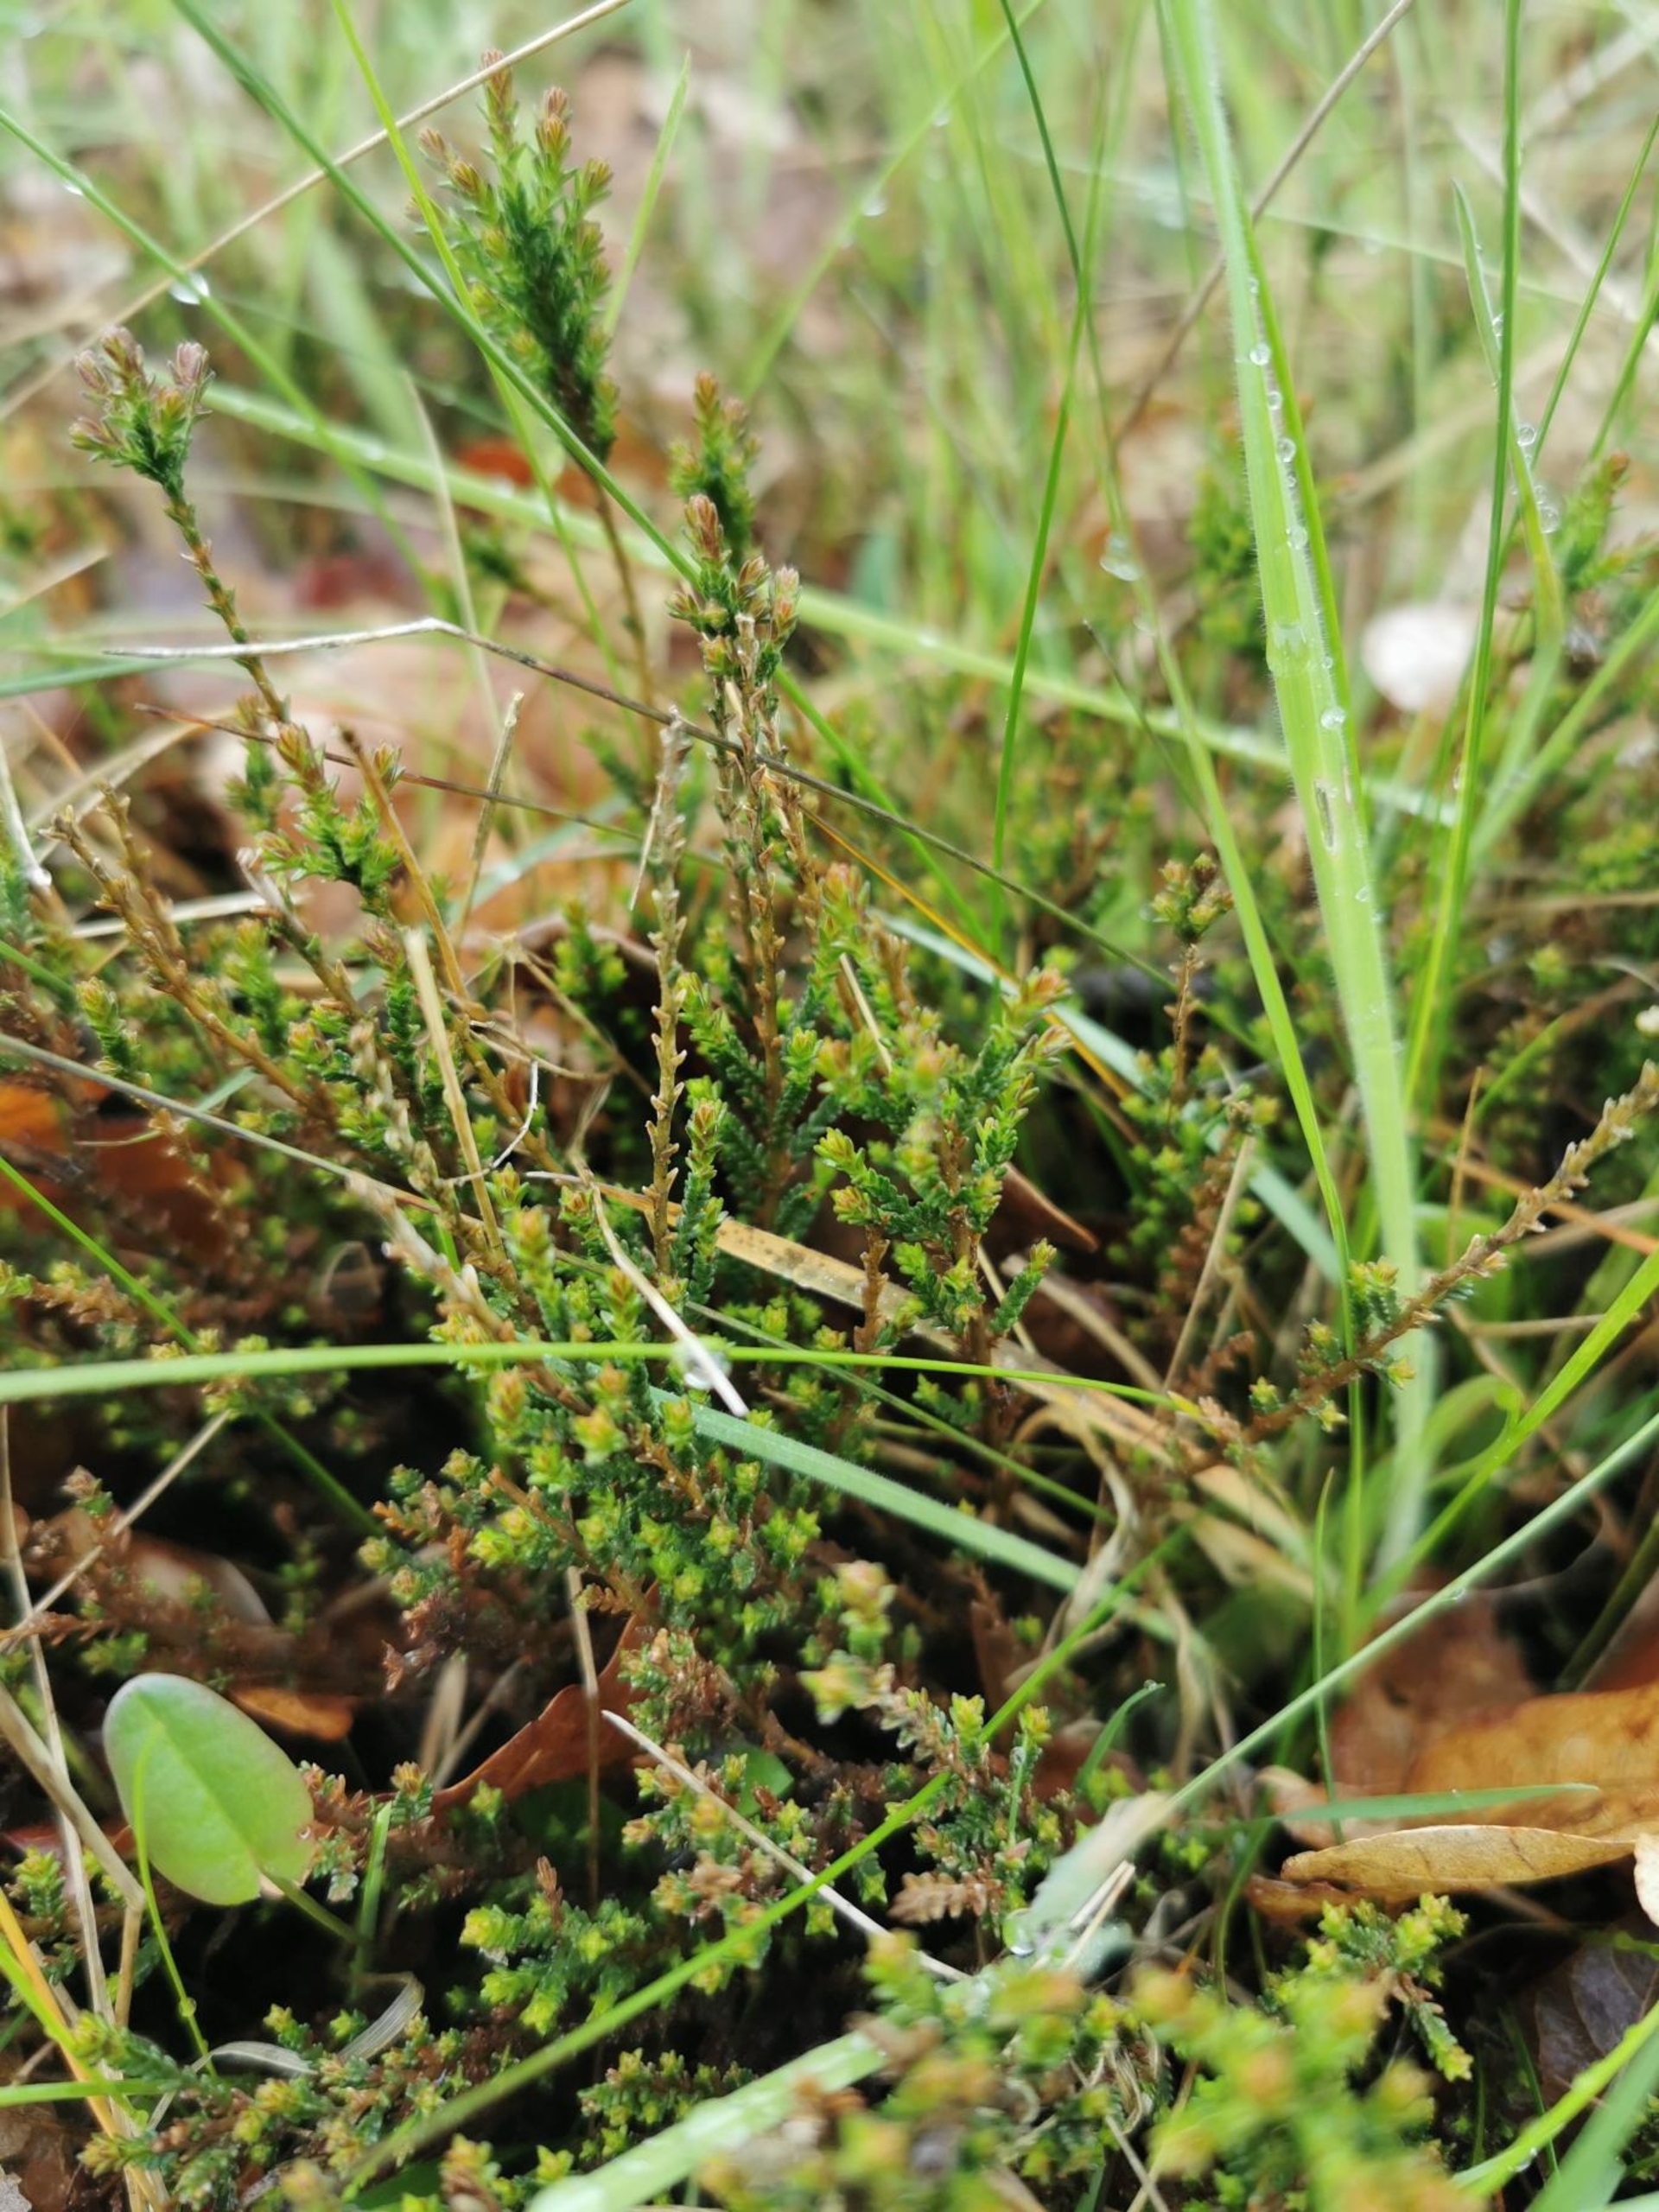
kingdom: Plantae
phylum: Tracheophyta
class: Magnoliopsida
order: Ericales
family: Ericaceae
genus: Calluna
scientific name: Calluna vulgaris
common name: Hedelyng
